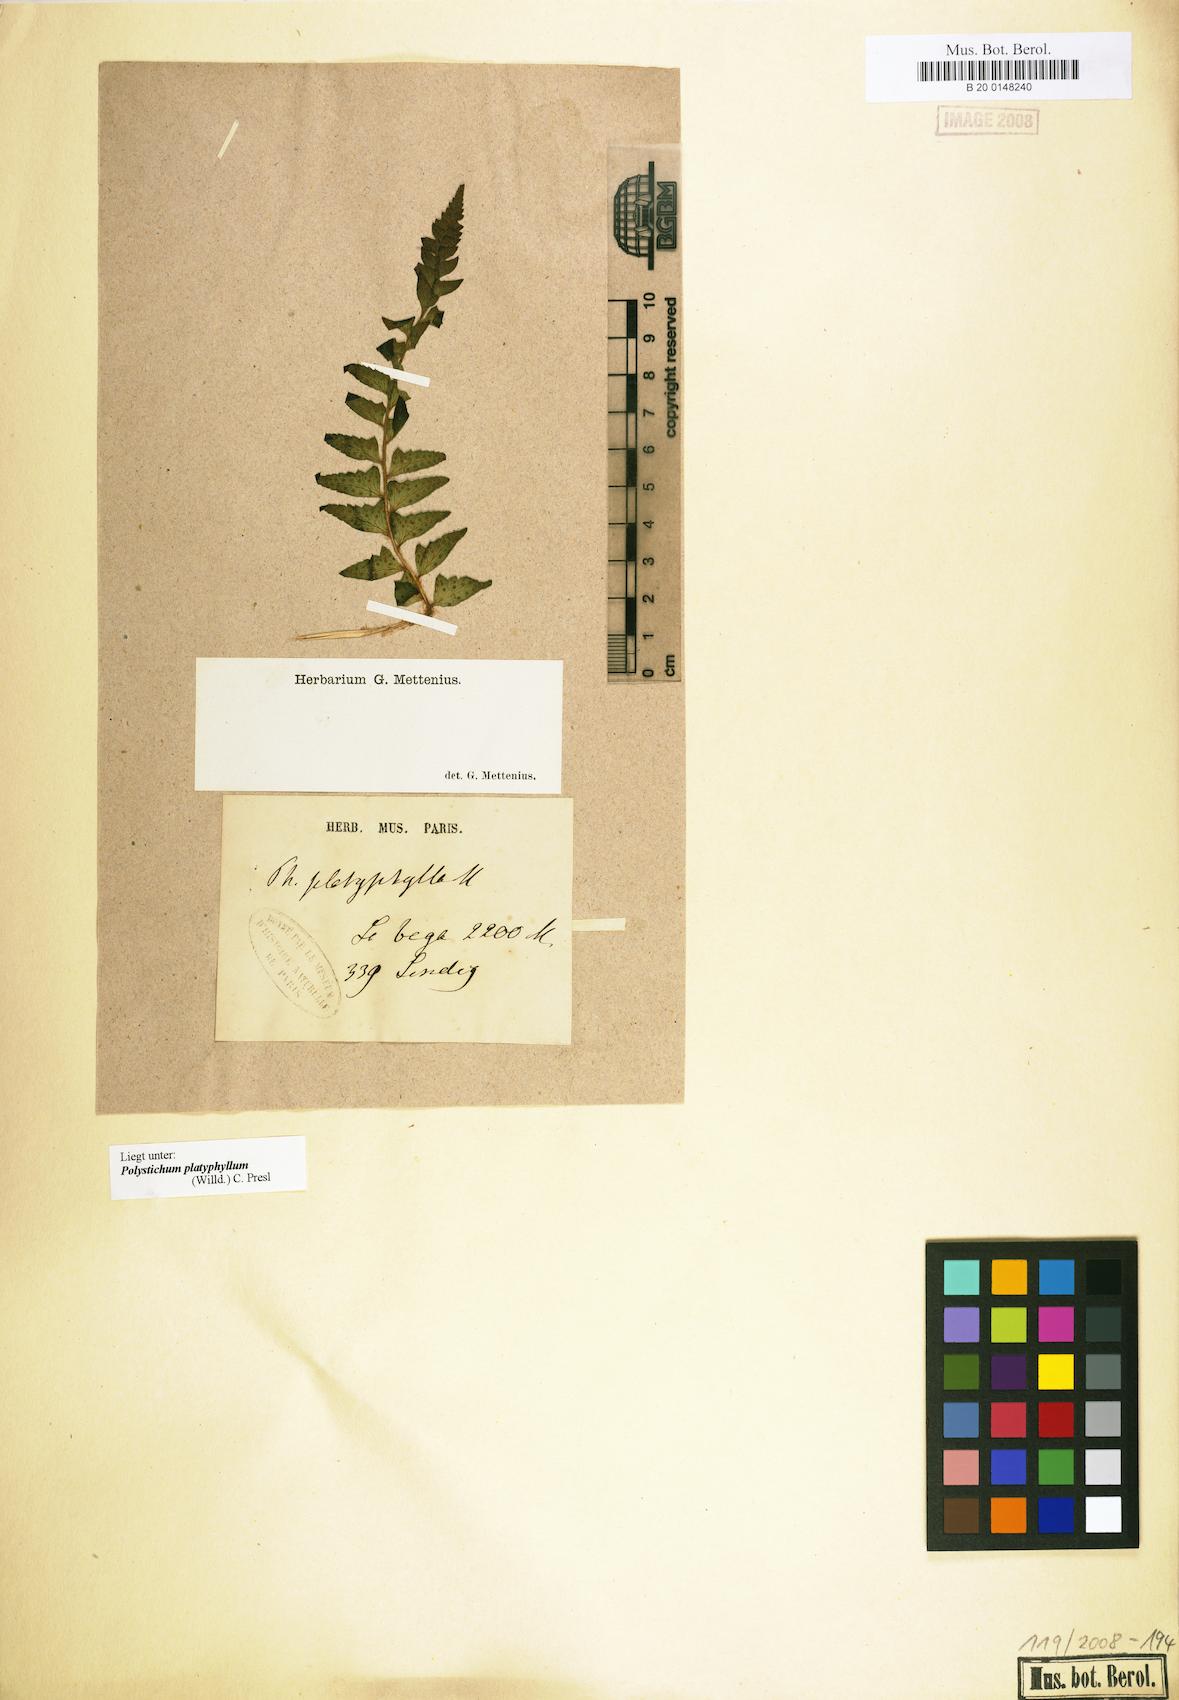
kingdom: Plantae
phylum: Tracheophyta
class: Polypodiopsida
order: Polypodiales
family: Dryopteridaceae
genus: Polystichum
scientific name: Polystichum platyphyllum
